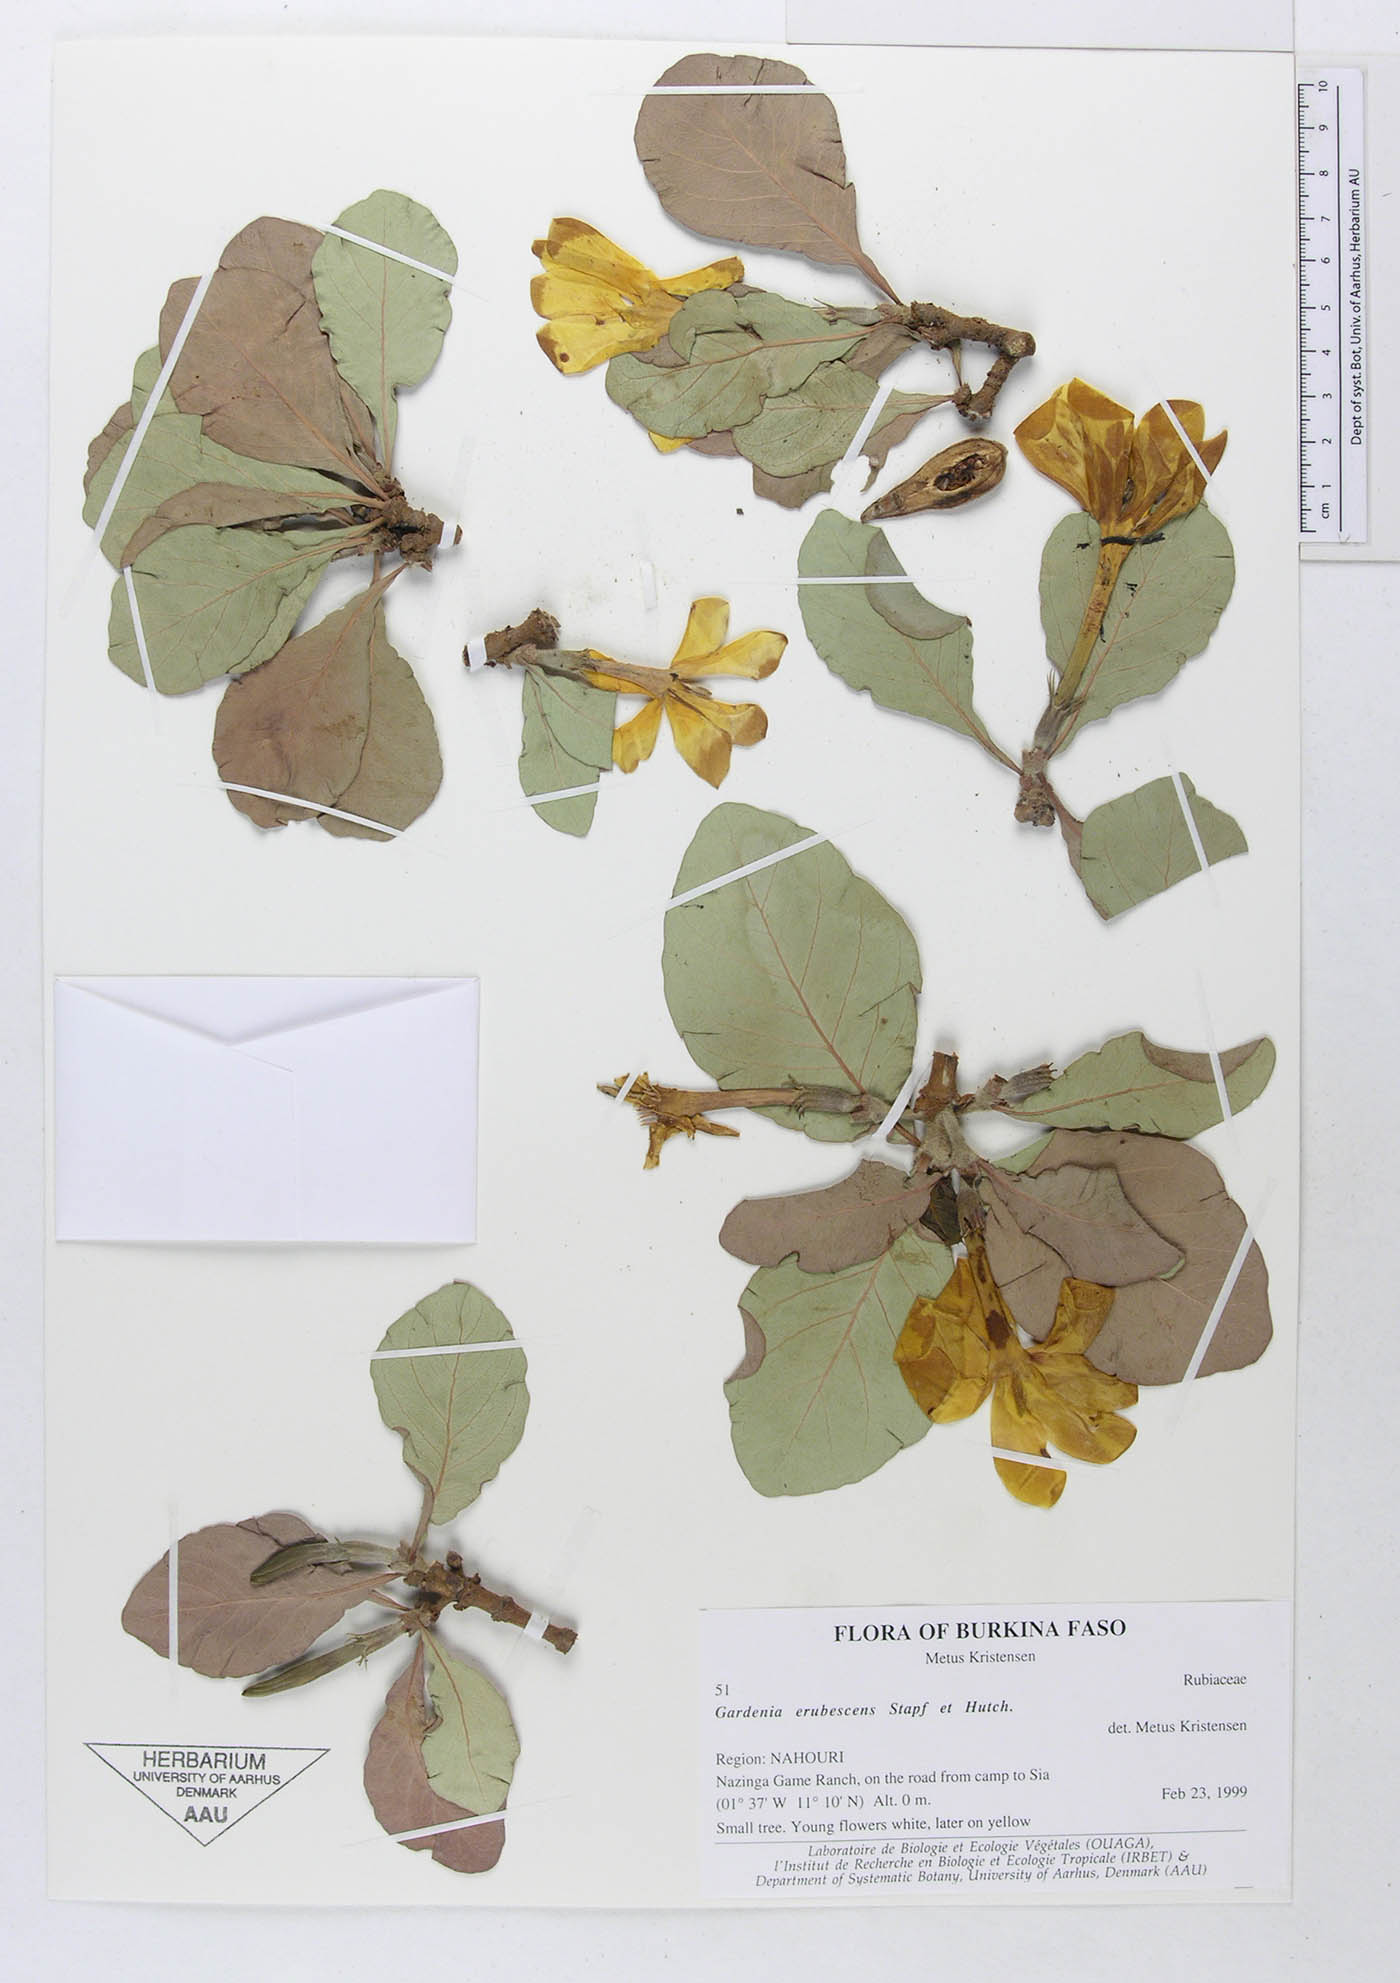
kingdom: Plantae
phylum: Tracheophyta
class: Magnoliopsida
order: Gentianales
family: Rubiaceae
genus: Gardenia
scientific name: Gardenia erubescens
